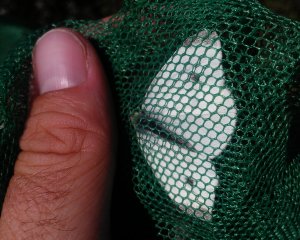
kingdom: Animalia
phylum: Arthropoda
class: Insecta
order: Lepidoptera
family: Pieridae
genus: Pieris
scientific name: Pieris rapae
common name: Cabbage White
